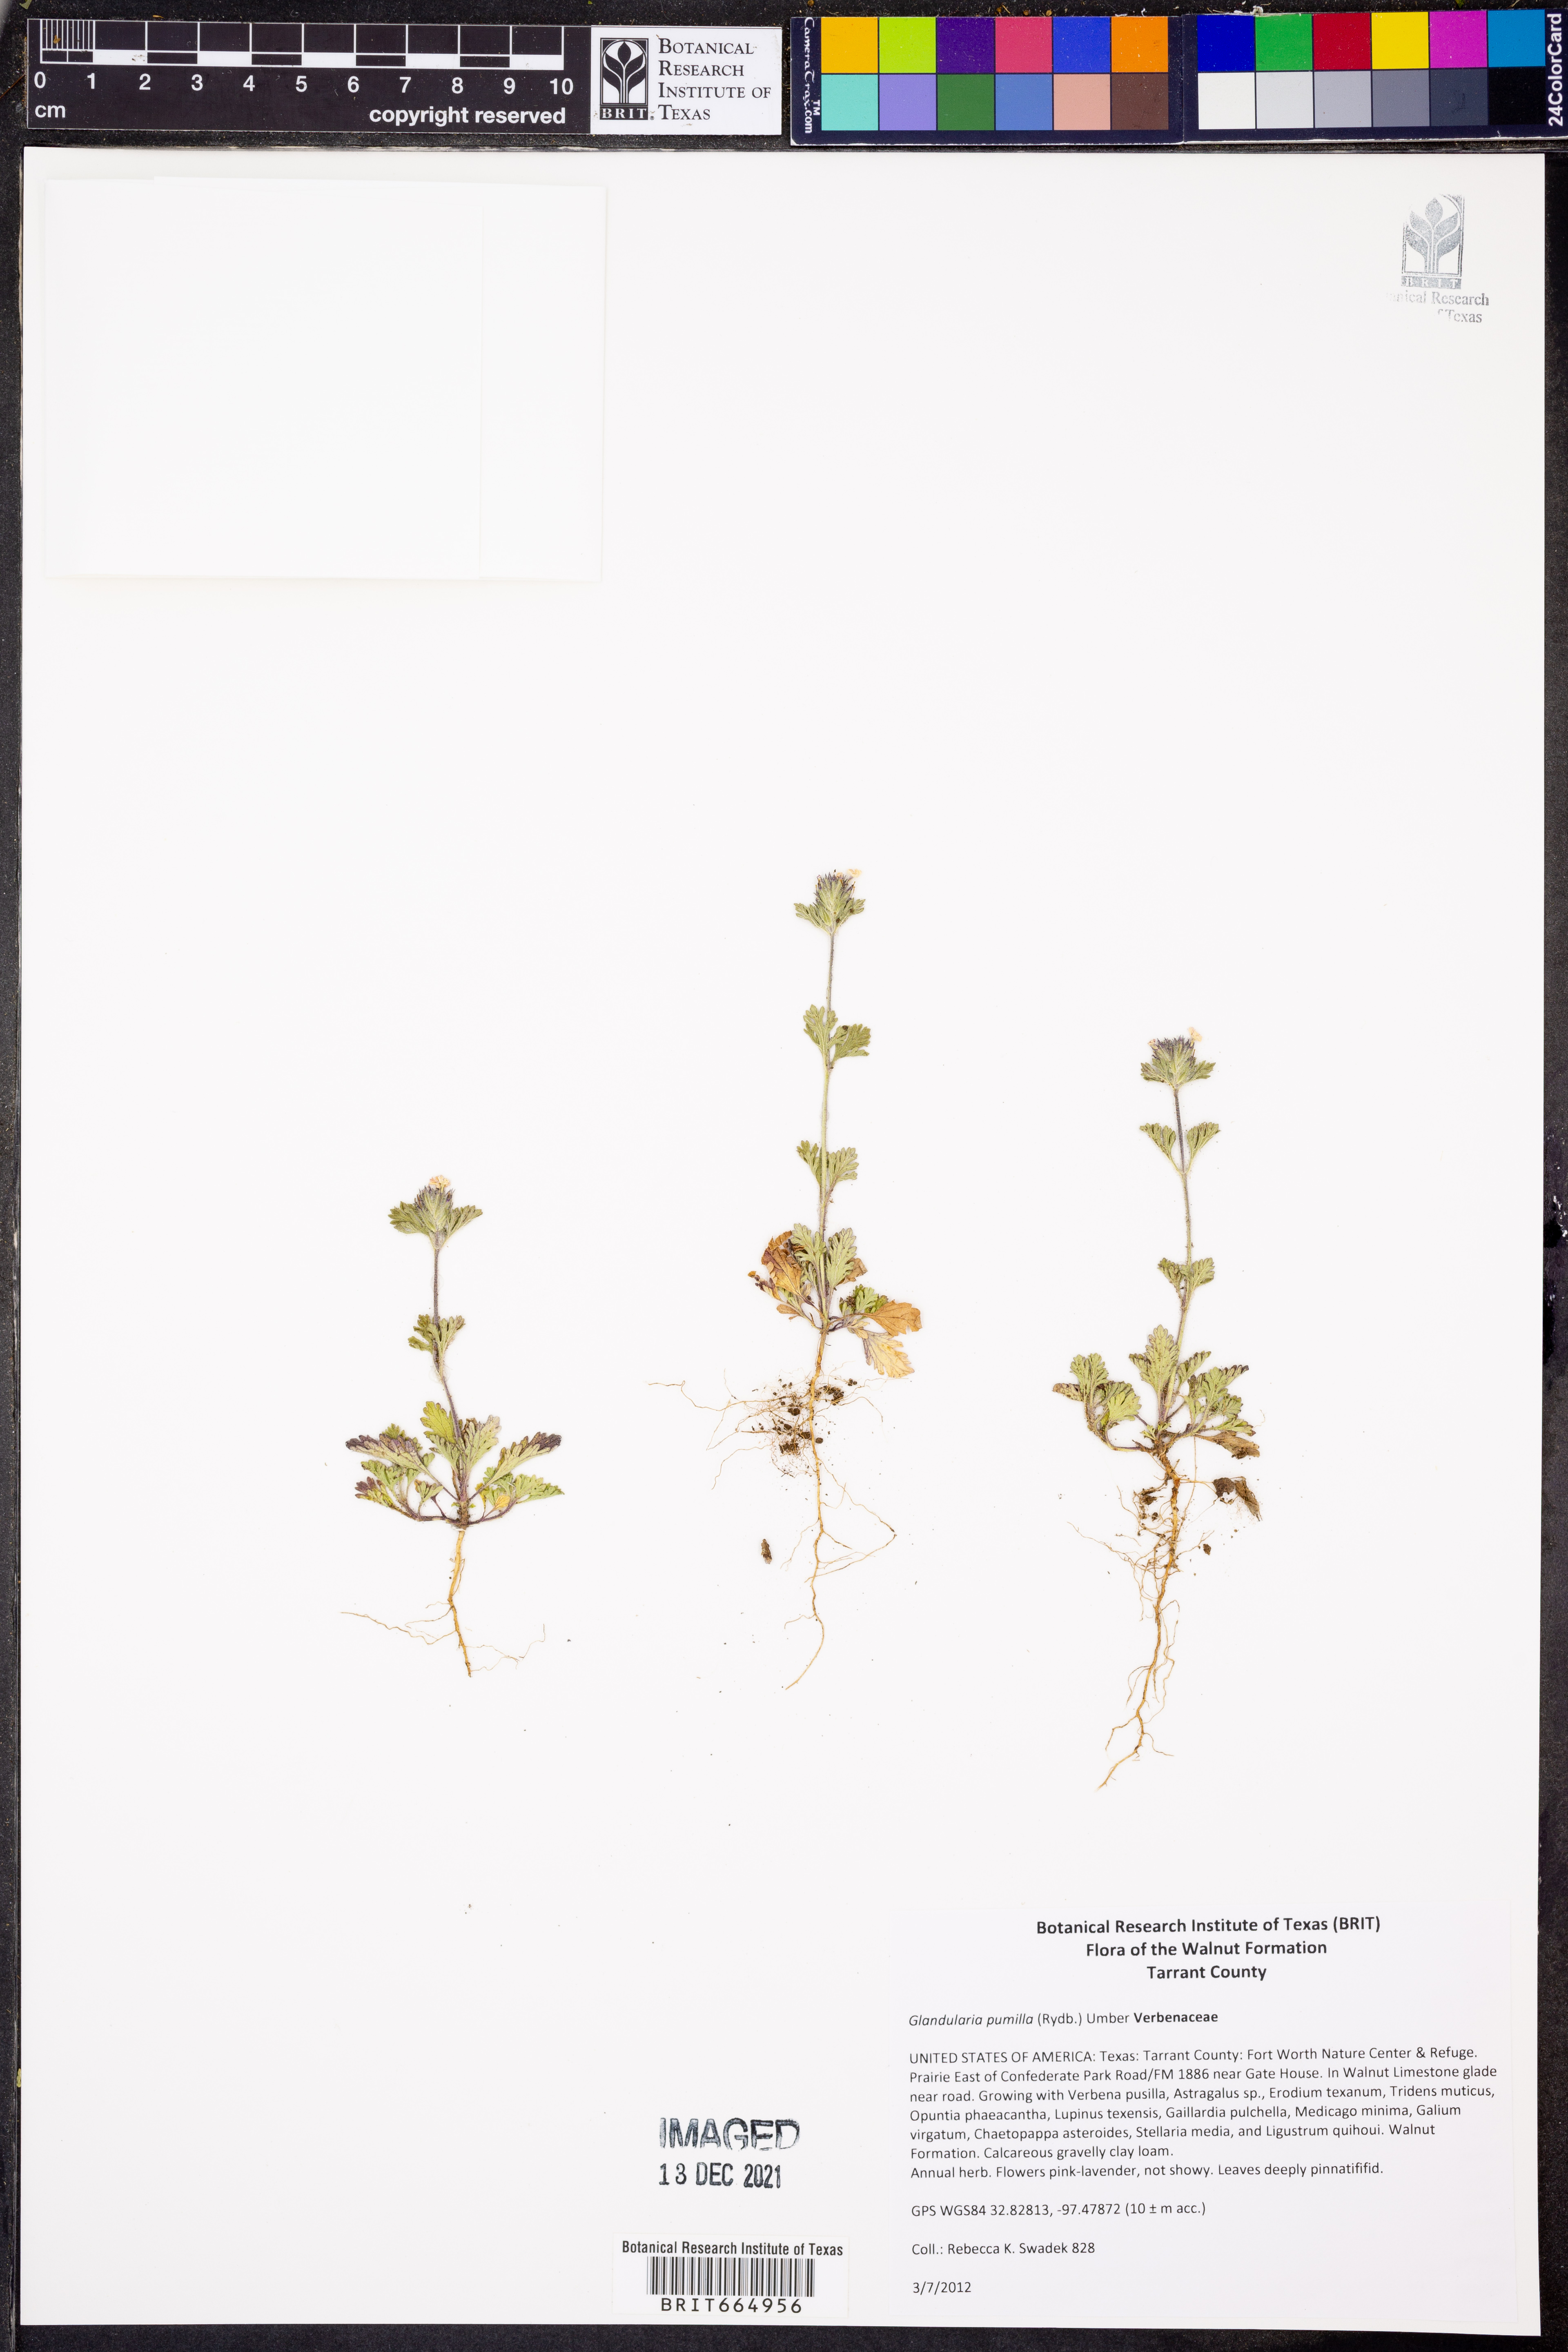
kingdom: Plantae
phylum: Tracheophyta
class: Magnoliopsida
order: Lamiales
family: Verbenaceae
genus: Verbena
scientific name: Verbena pumila
